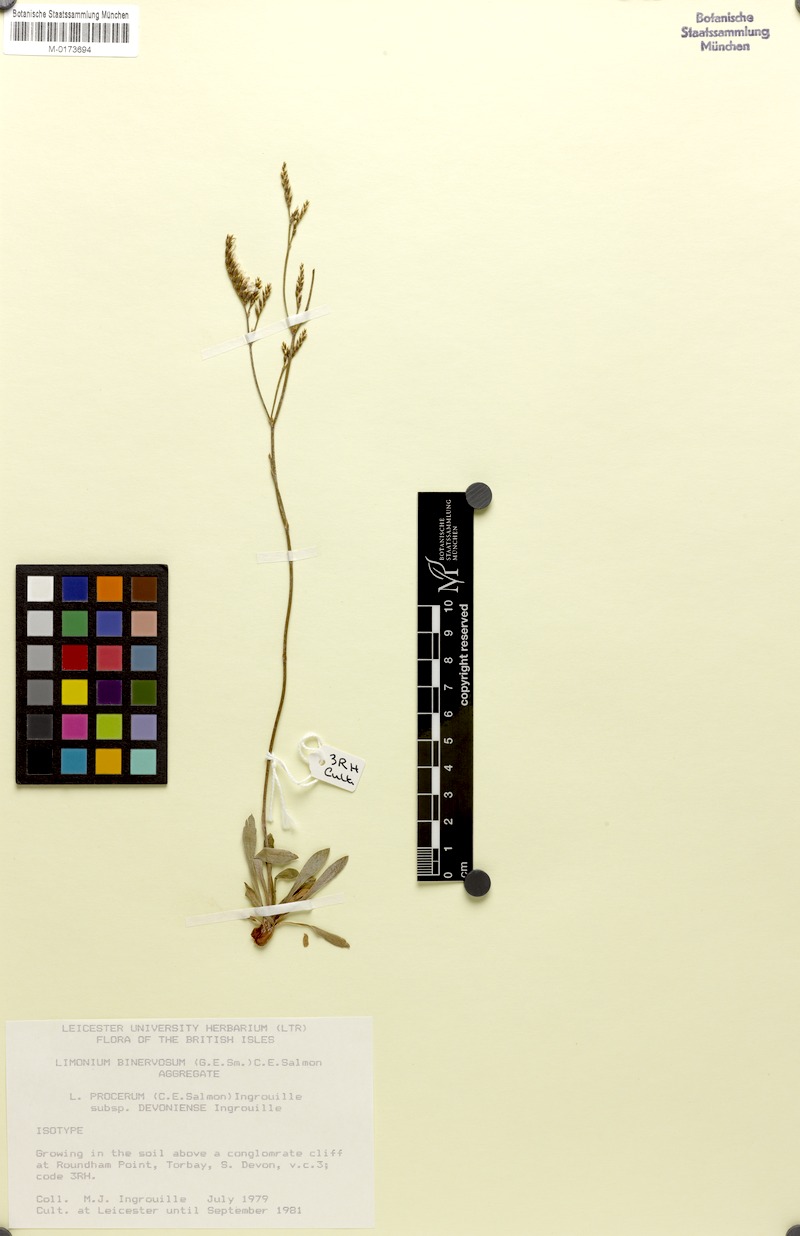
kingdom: Plantae
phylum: Tracheophyta
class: Magnoliopsida
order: Caryophyllales
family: Plumbaginaceae
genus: Limonium
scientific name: Limonium procerum
